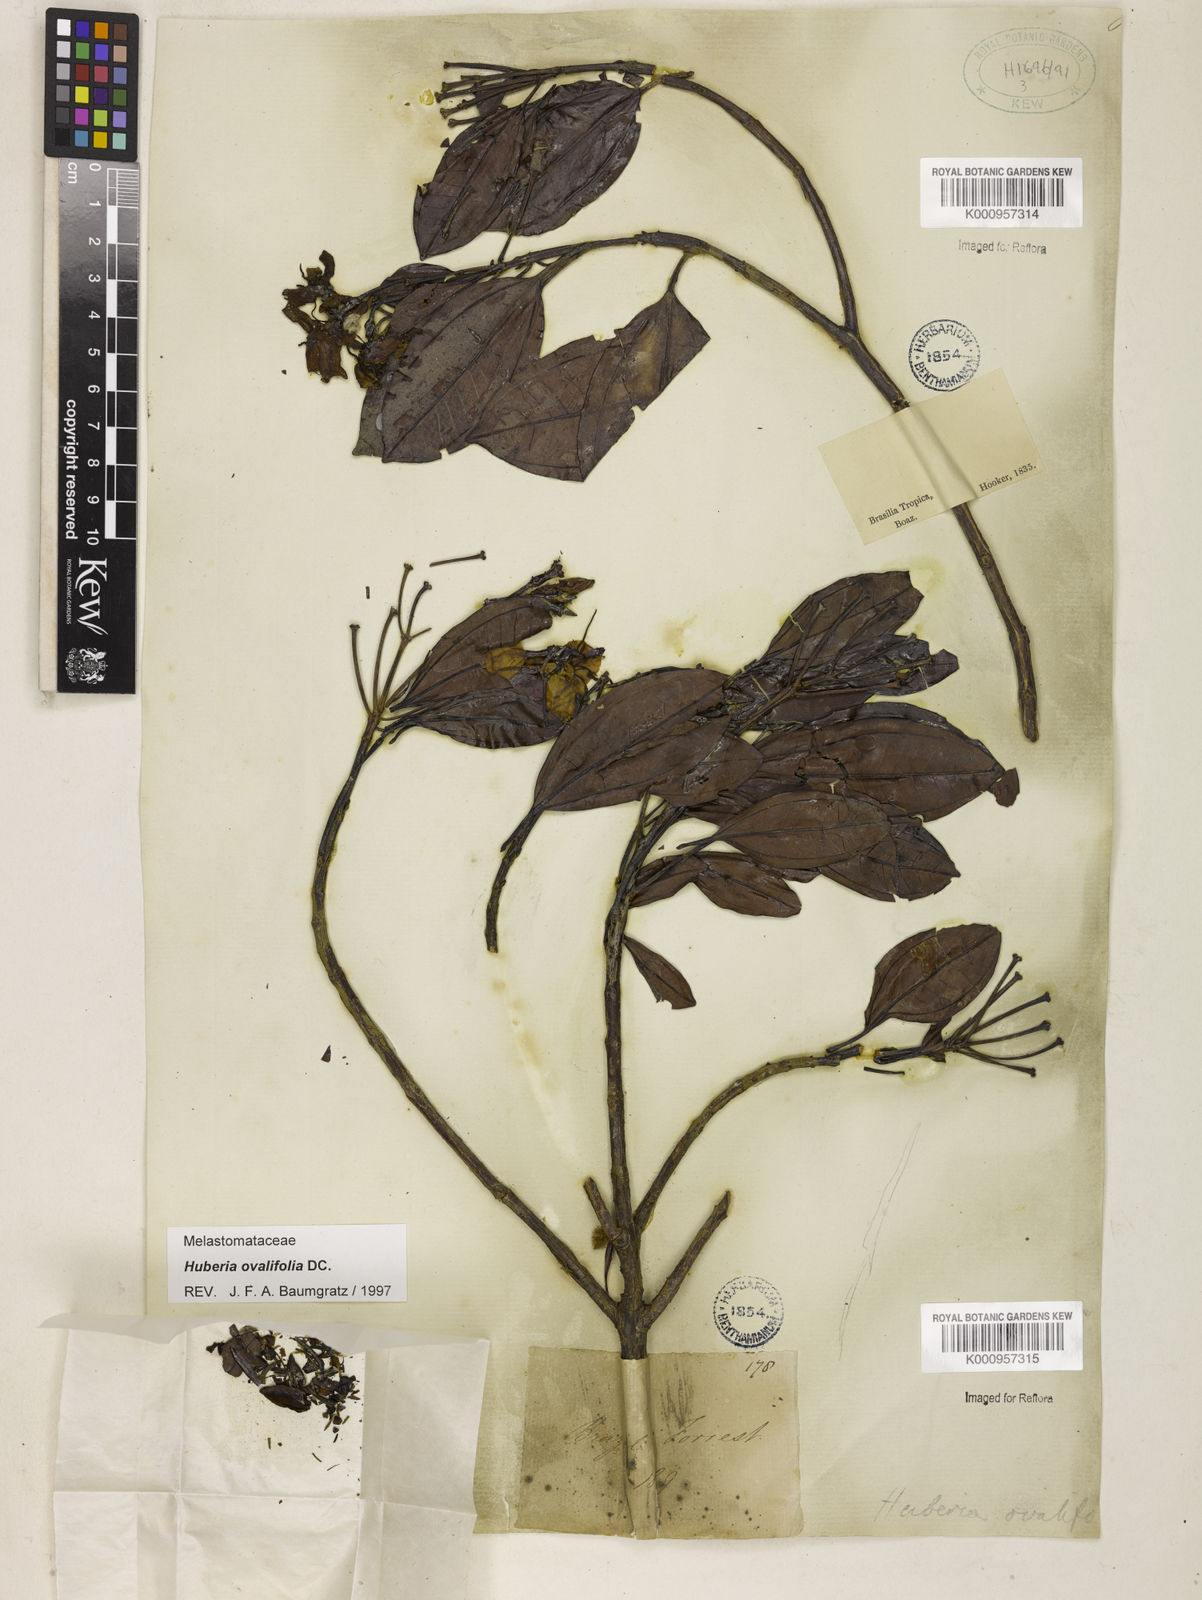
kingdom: Plantae
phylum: Tracheophyta
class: Magnoliopsida
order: Myrtales
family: Melastomataceae
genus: Huberia
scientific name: Huberia ovalifolia
